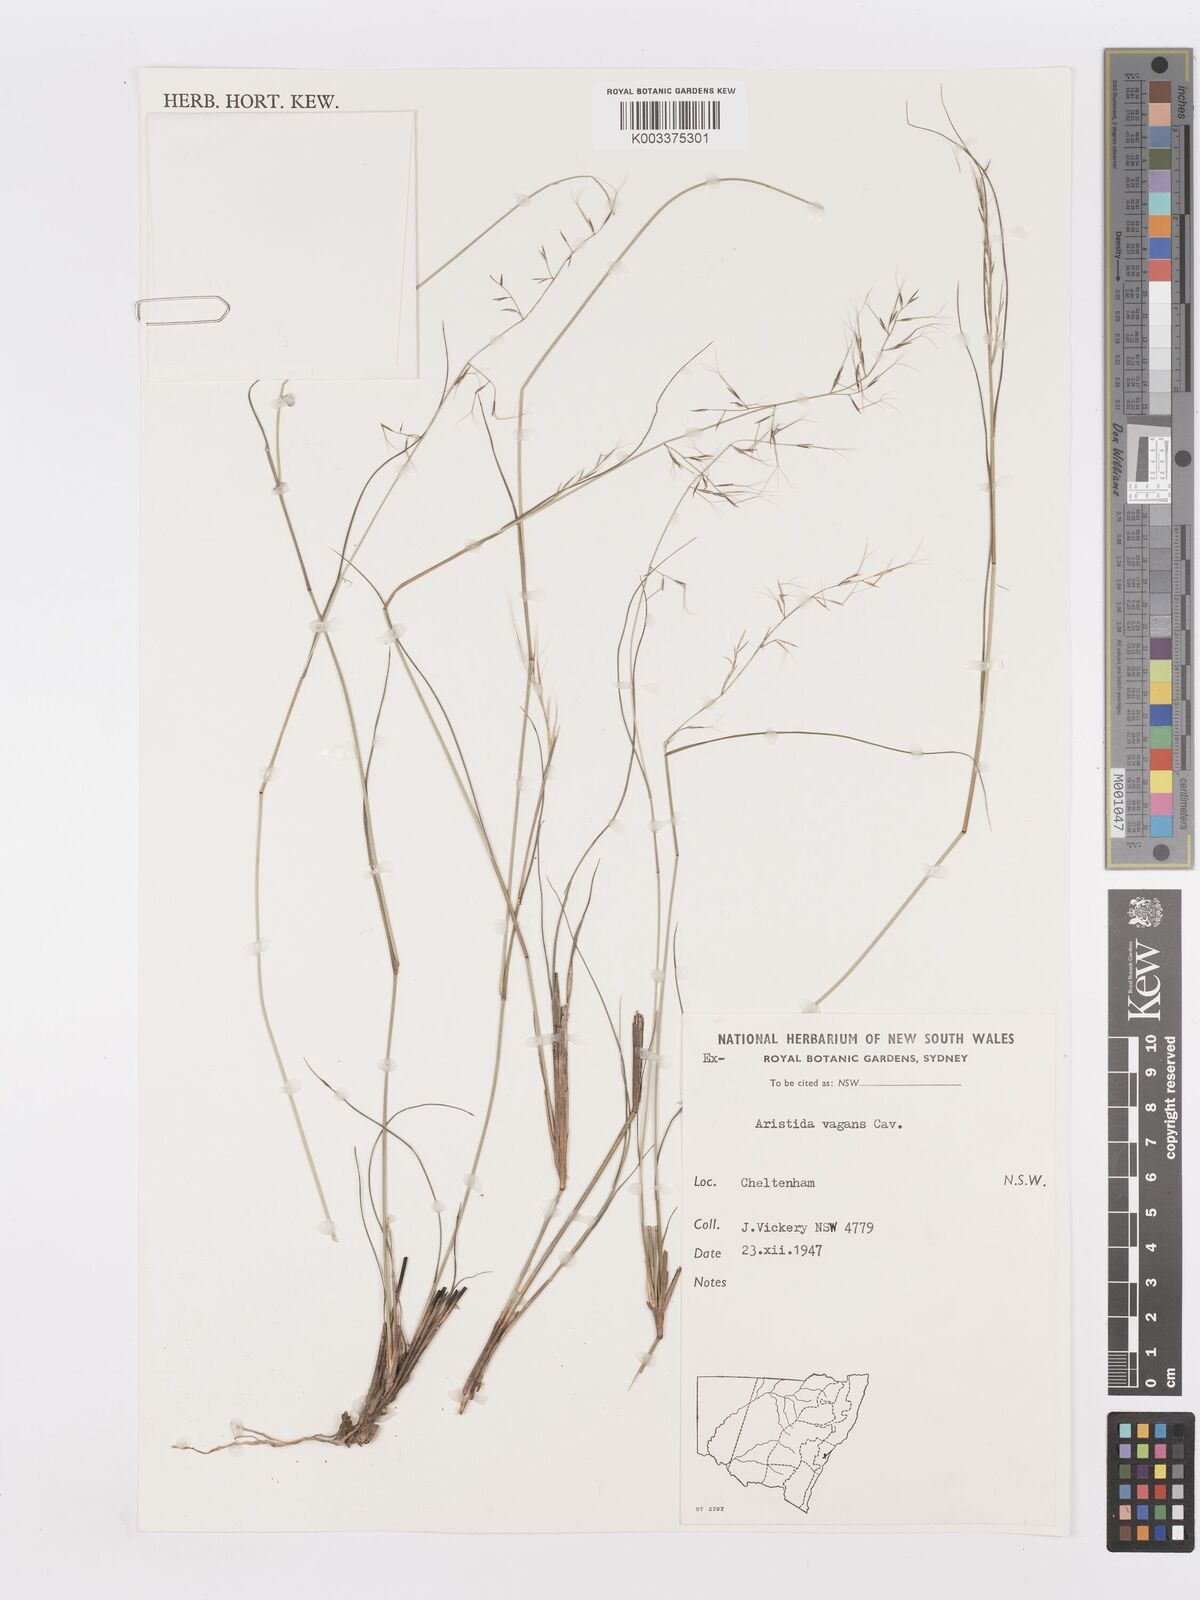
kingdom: Plantae
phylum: Tracheophyta
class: Liliopsida
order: Poales
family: Poaceae
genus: Aristida
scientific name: Aristida vagans
